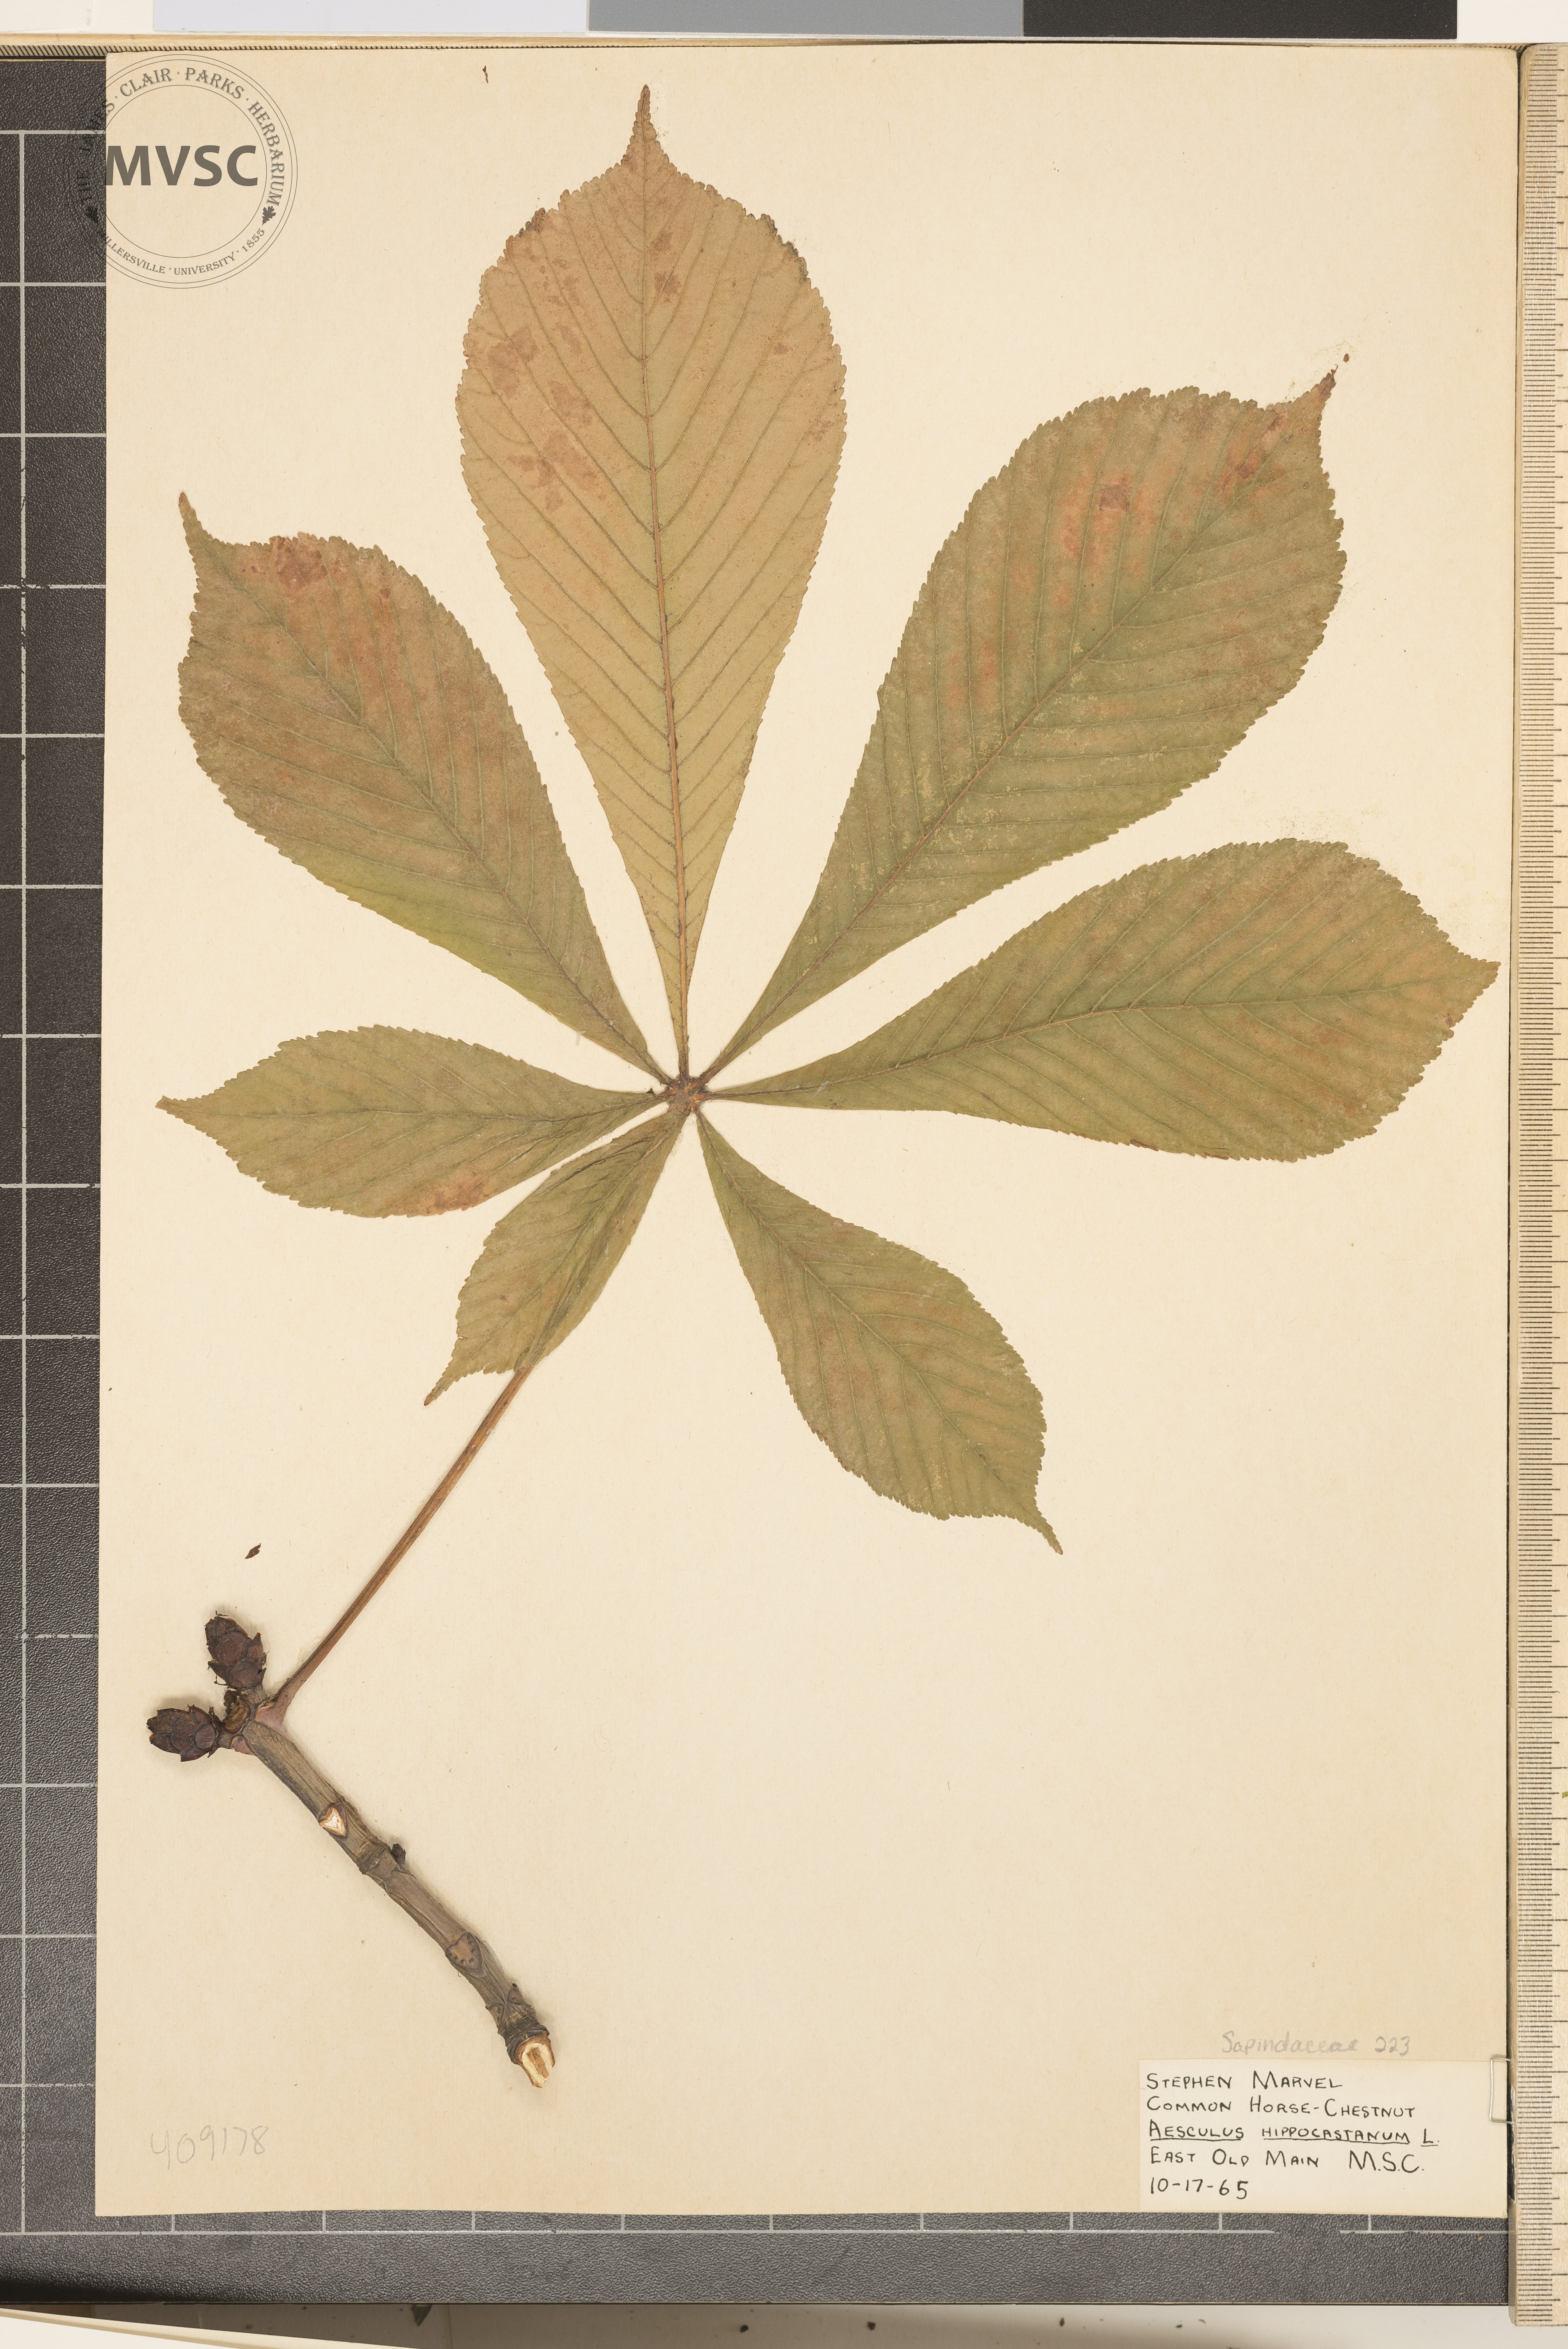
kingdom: Plantae
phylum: Tracheophyta
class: Magnoliopsida
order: Sapindales
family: Sapindaceae
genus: Aesculus
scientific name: Aesculus hippocastanum
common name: Horse-chestnut
